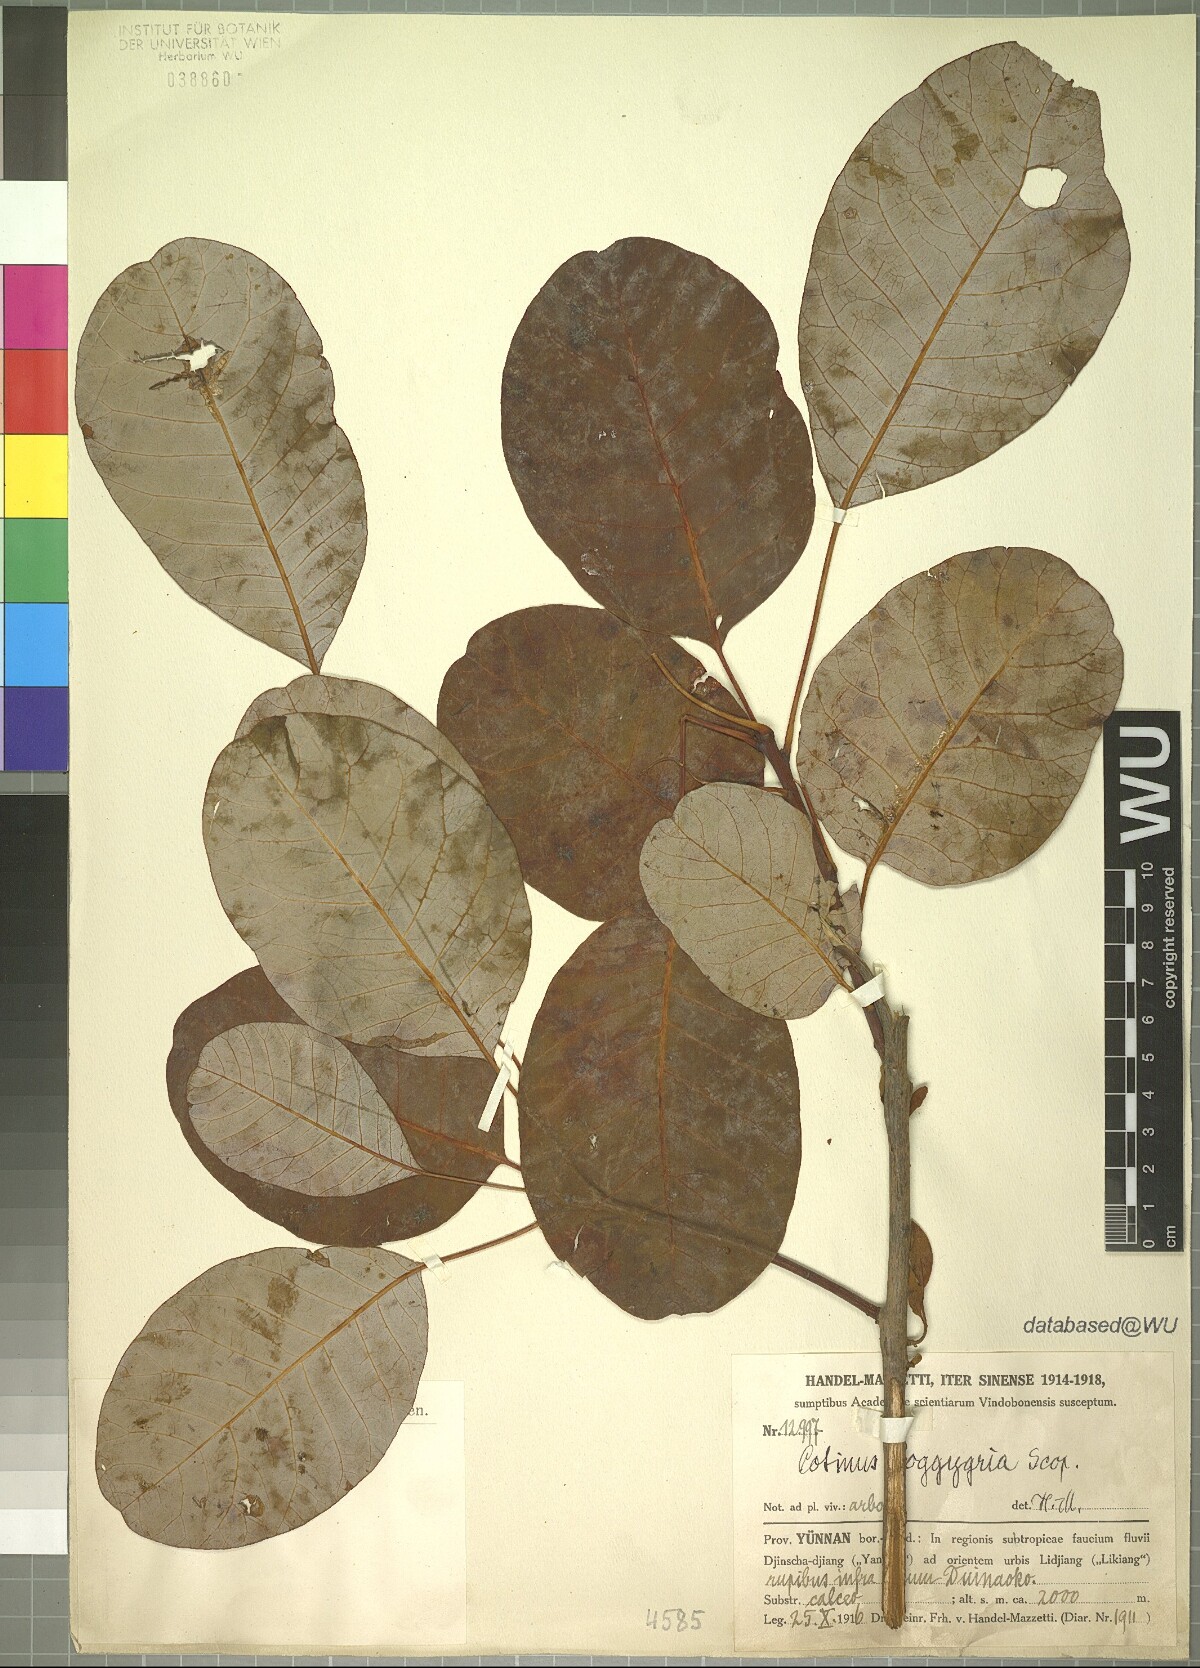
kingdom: Plantae
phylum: Tracheophyta
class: Magnoliopsida
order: Sapindales
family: Anacardiaceae
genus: Cotinus
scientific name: Cotinus coggygria
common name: Smoke-tree
